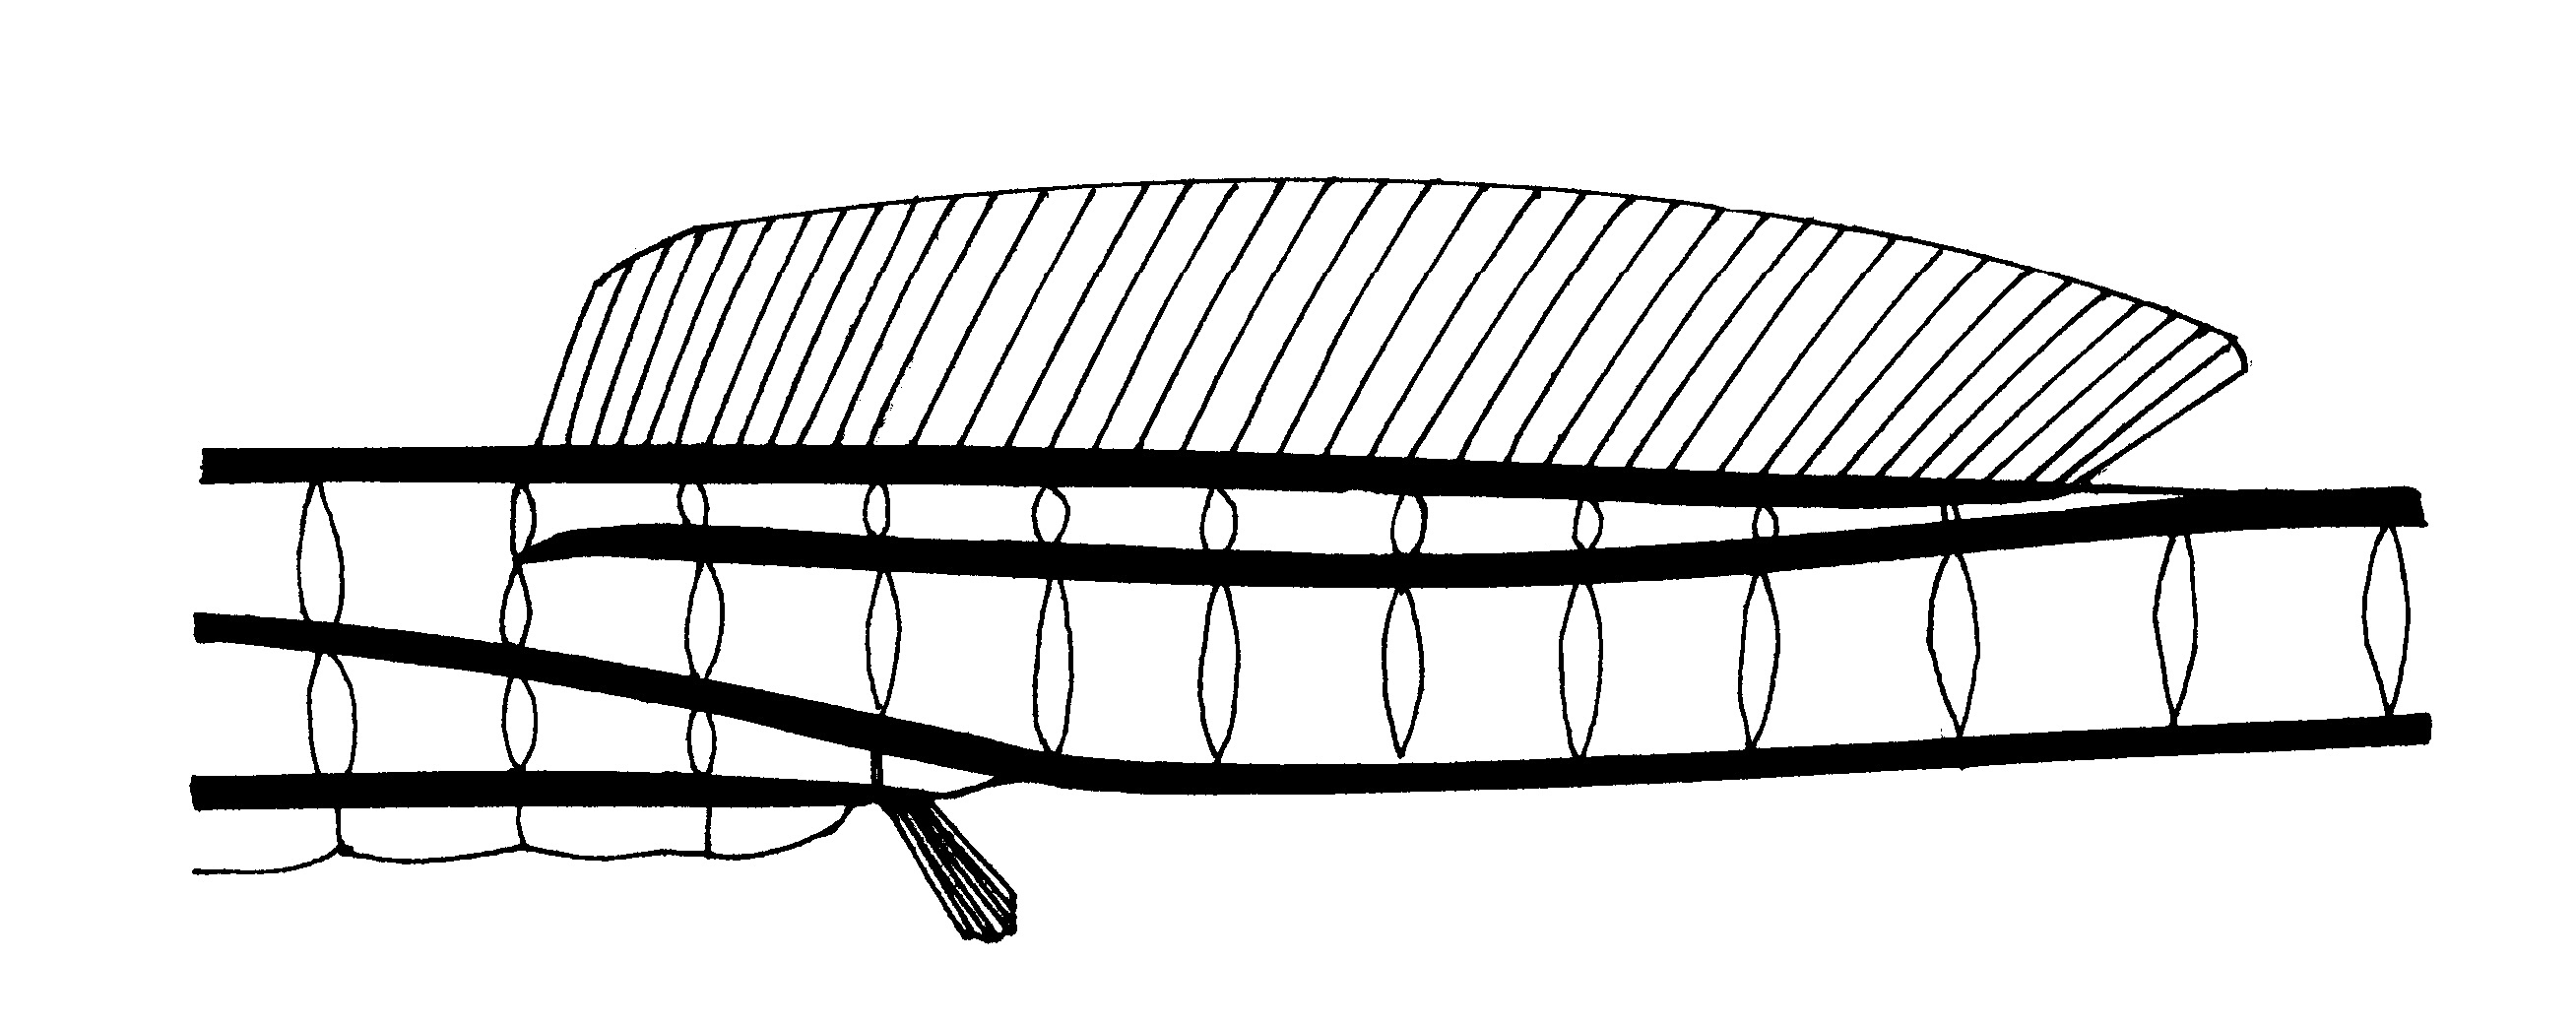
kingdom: Animalia
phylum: Chordata
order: Syngnathiformes
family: Syngnathidae
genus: Microphis
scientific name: Microphis millepunctatus
